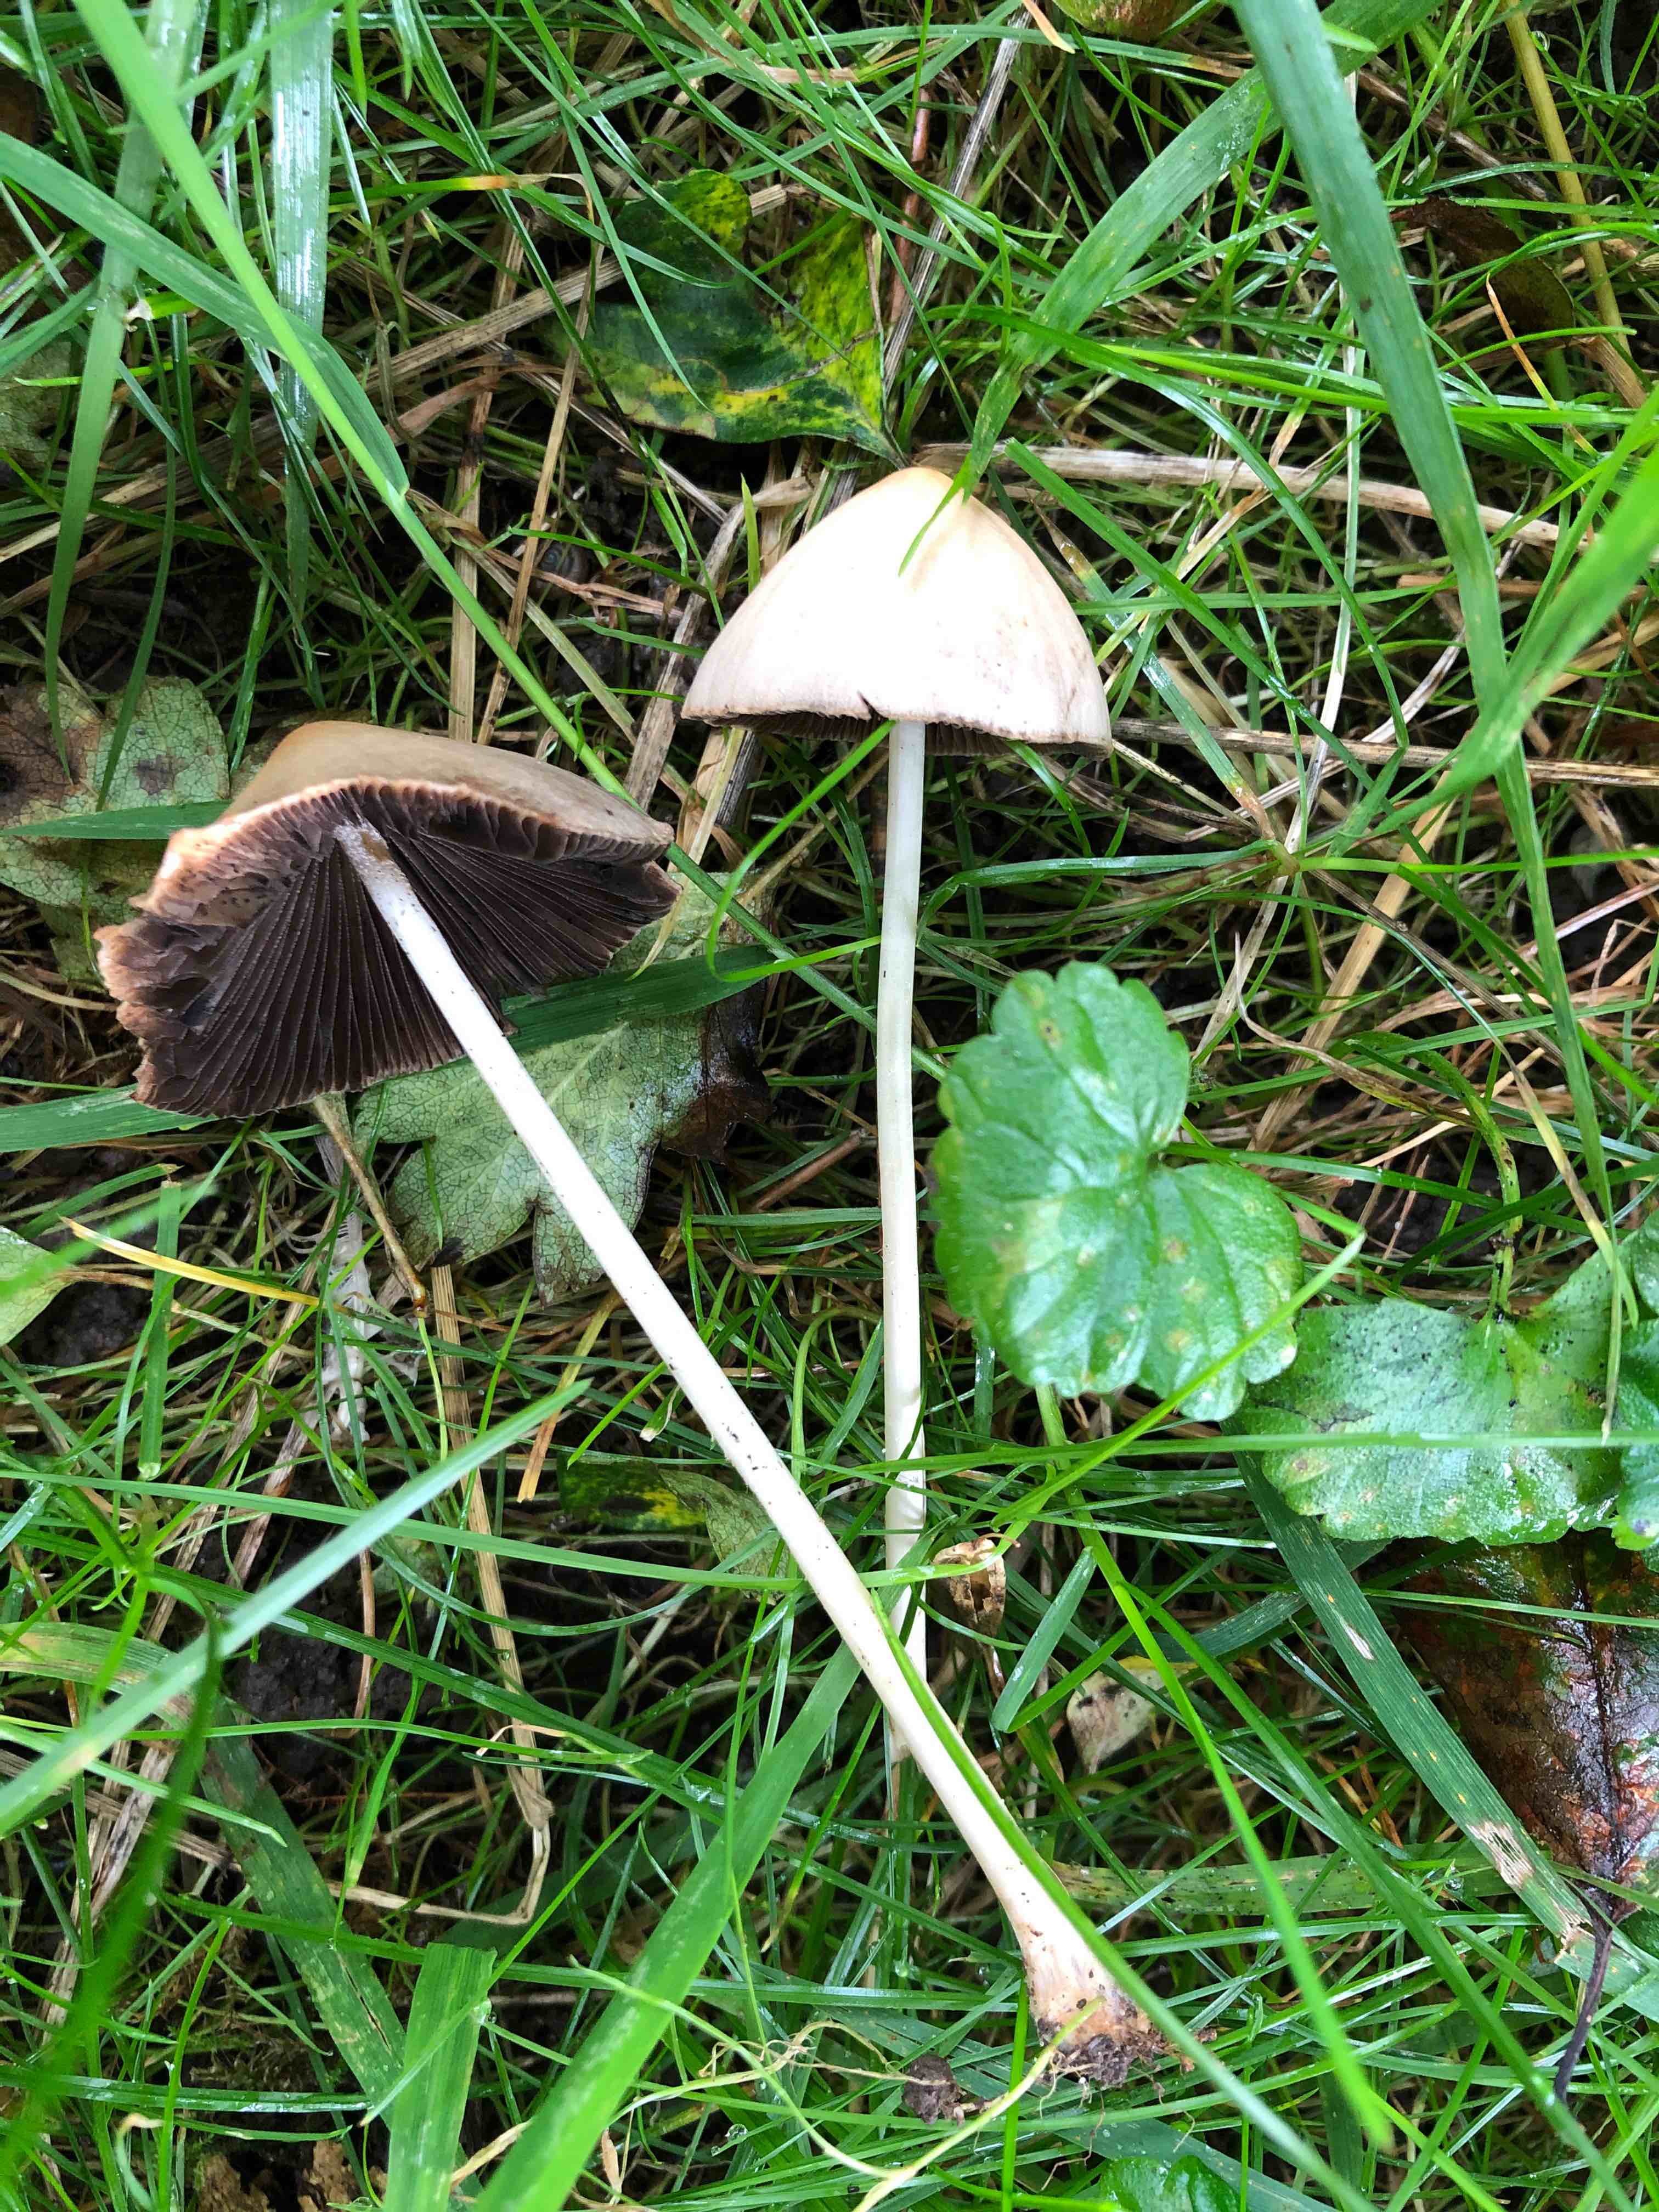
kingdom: Fungi
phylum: Basidiomycota
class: Agaricomycetes
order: Agaricales
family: Psathyrellaceae
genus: Psathyrella
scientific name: Psathyrella
